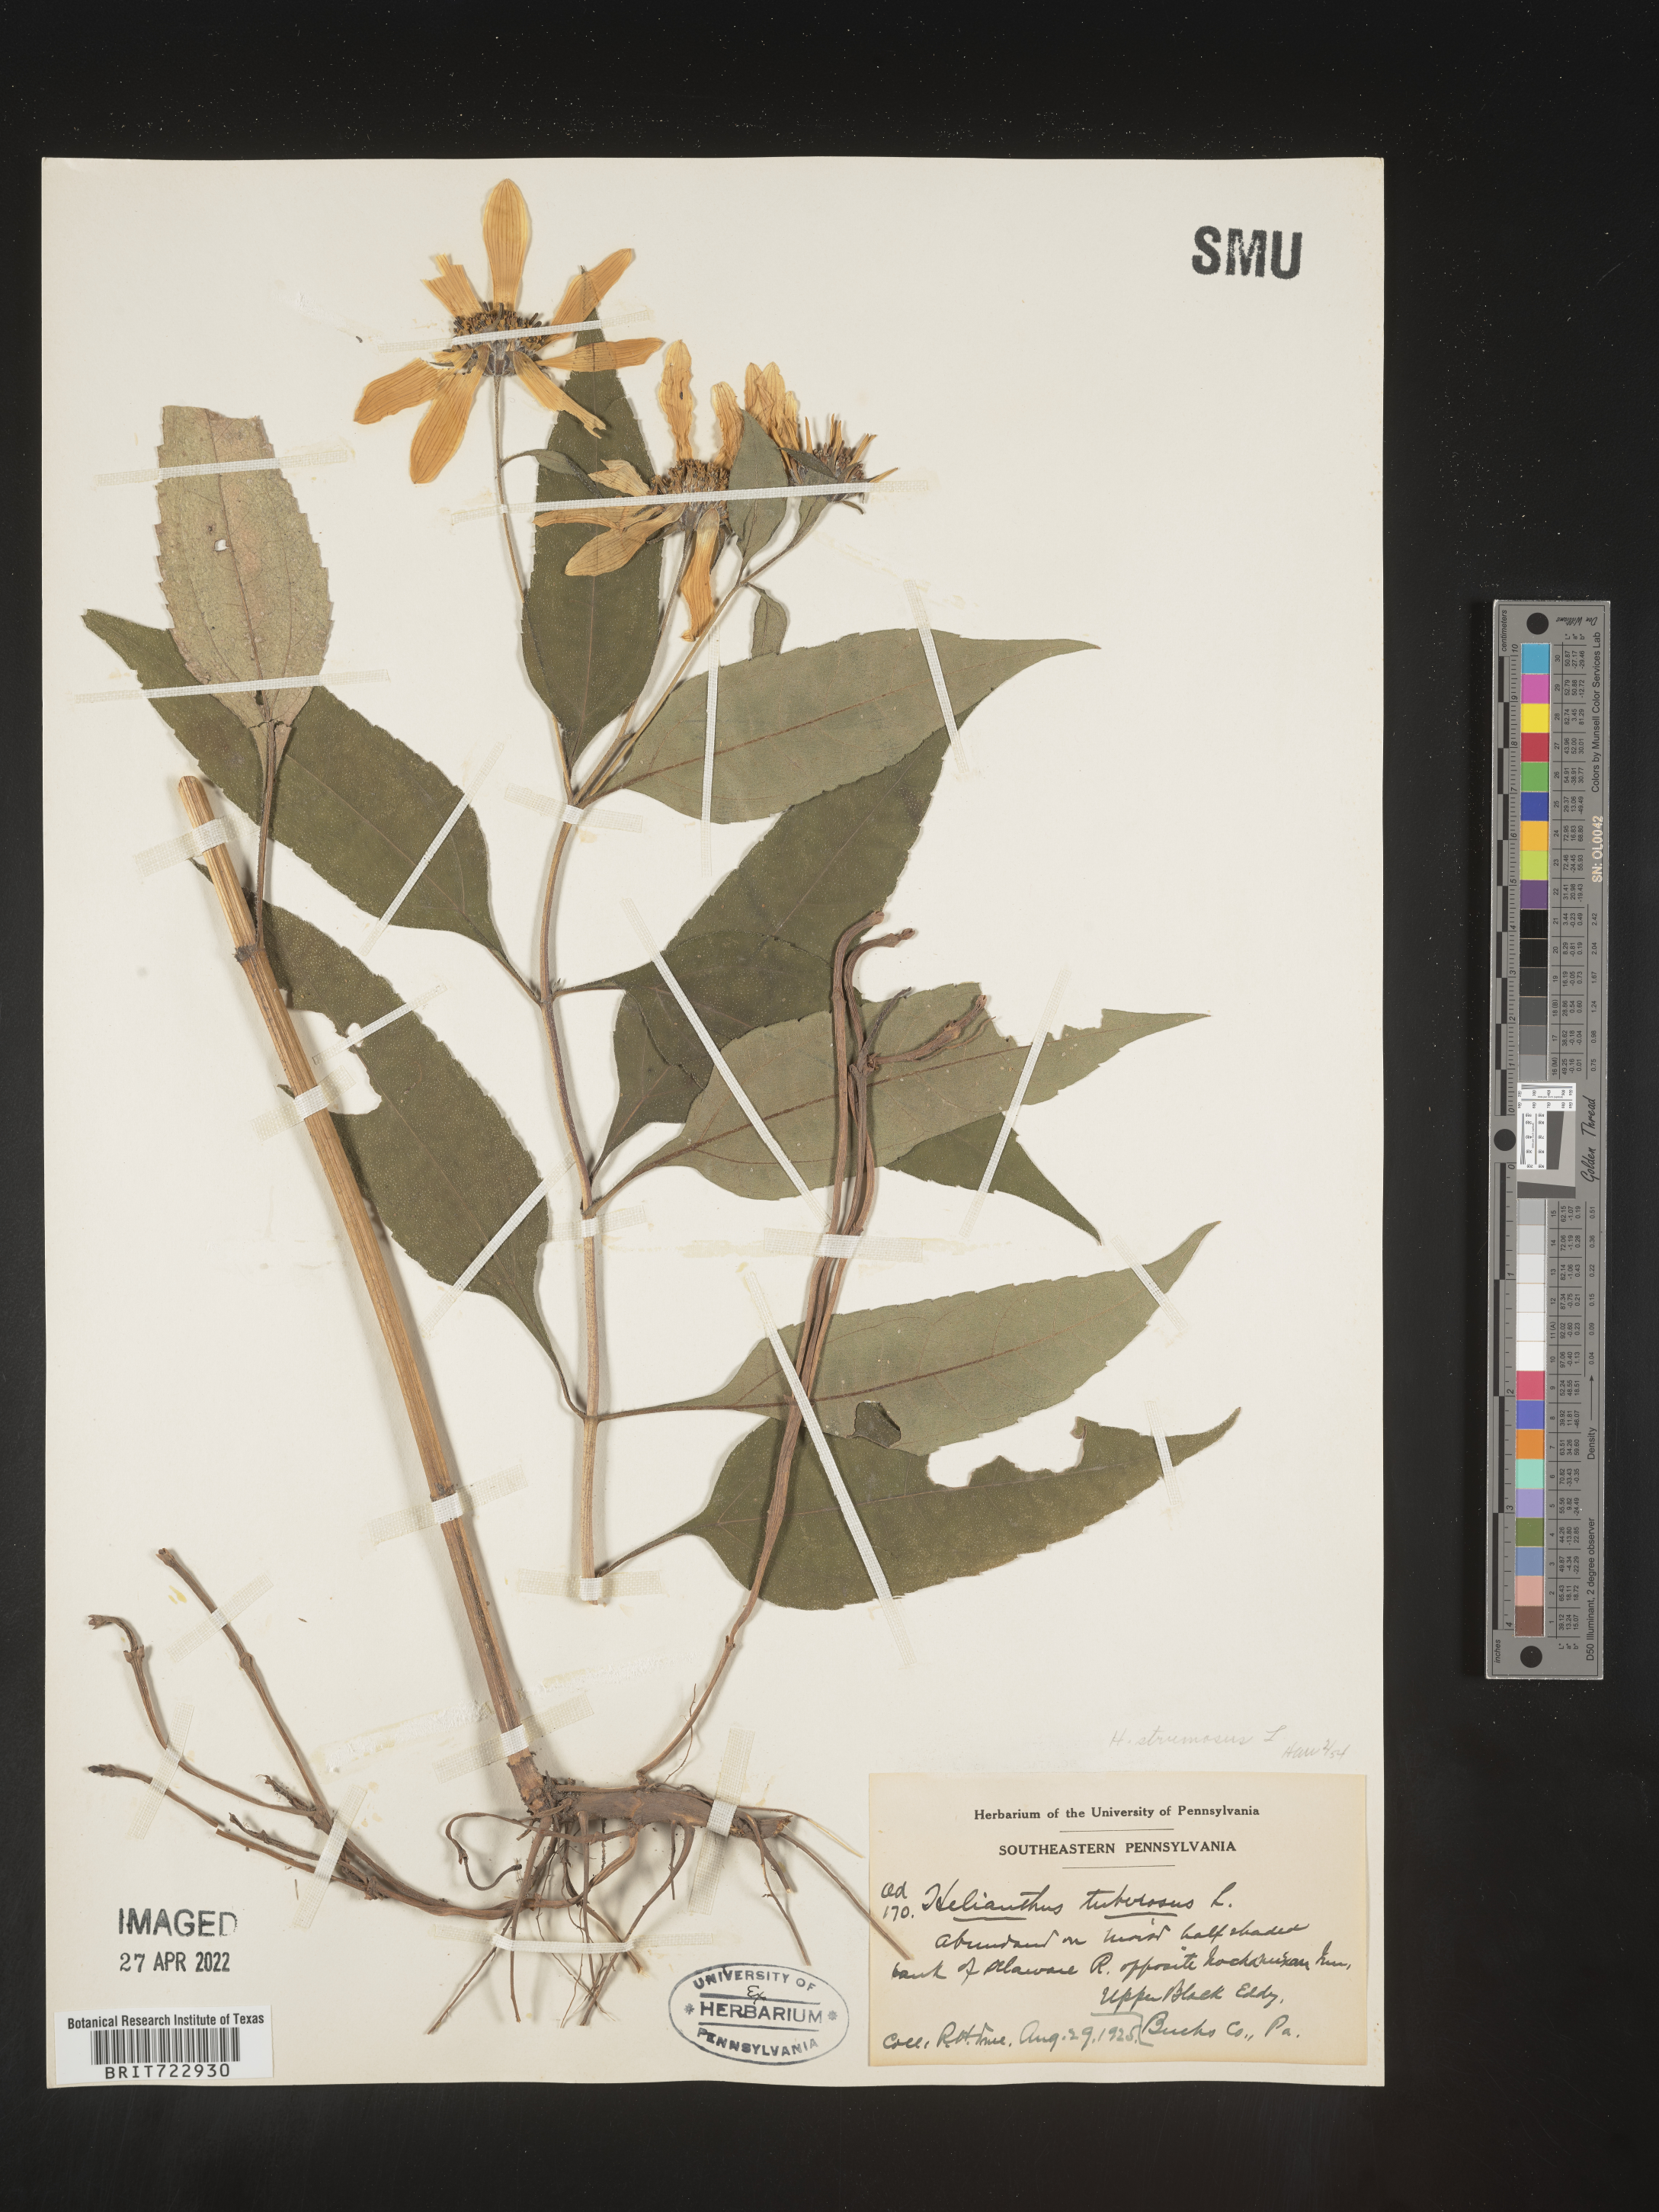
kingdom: Plantae
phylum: Tracheophyta
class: Magnoliopsida
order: Asterales
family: Asteraceae
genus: Helianthus
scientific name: Helianthus strumosus
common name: Pale-leaved sunflower
